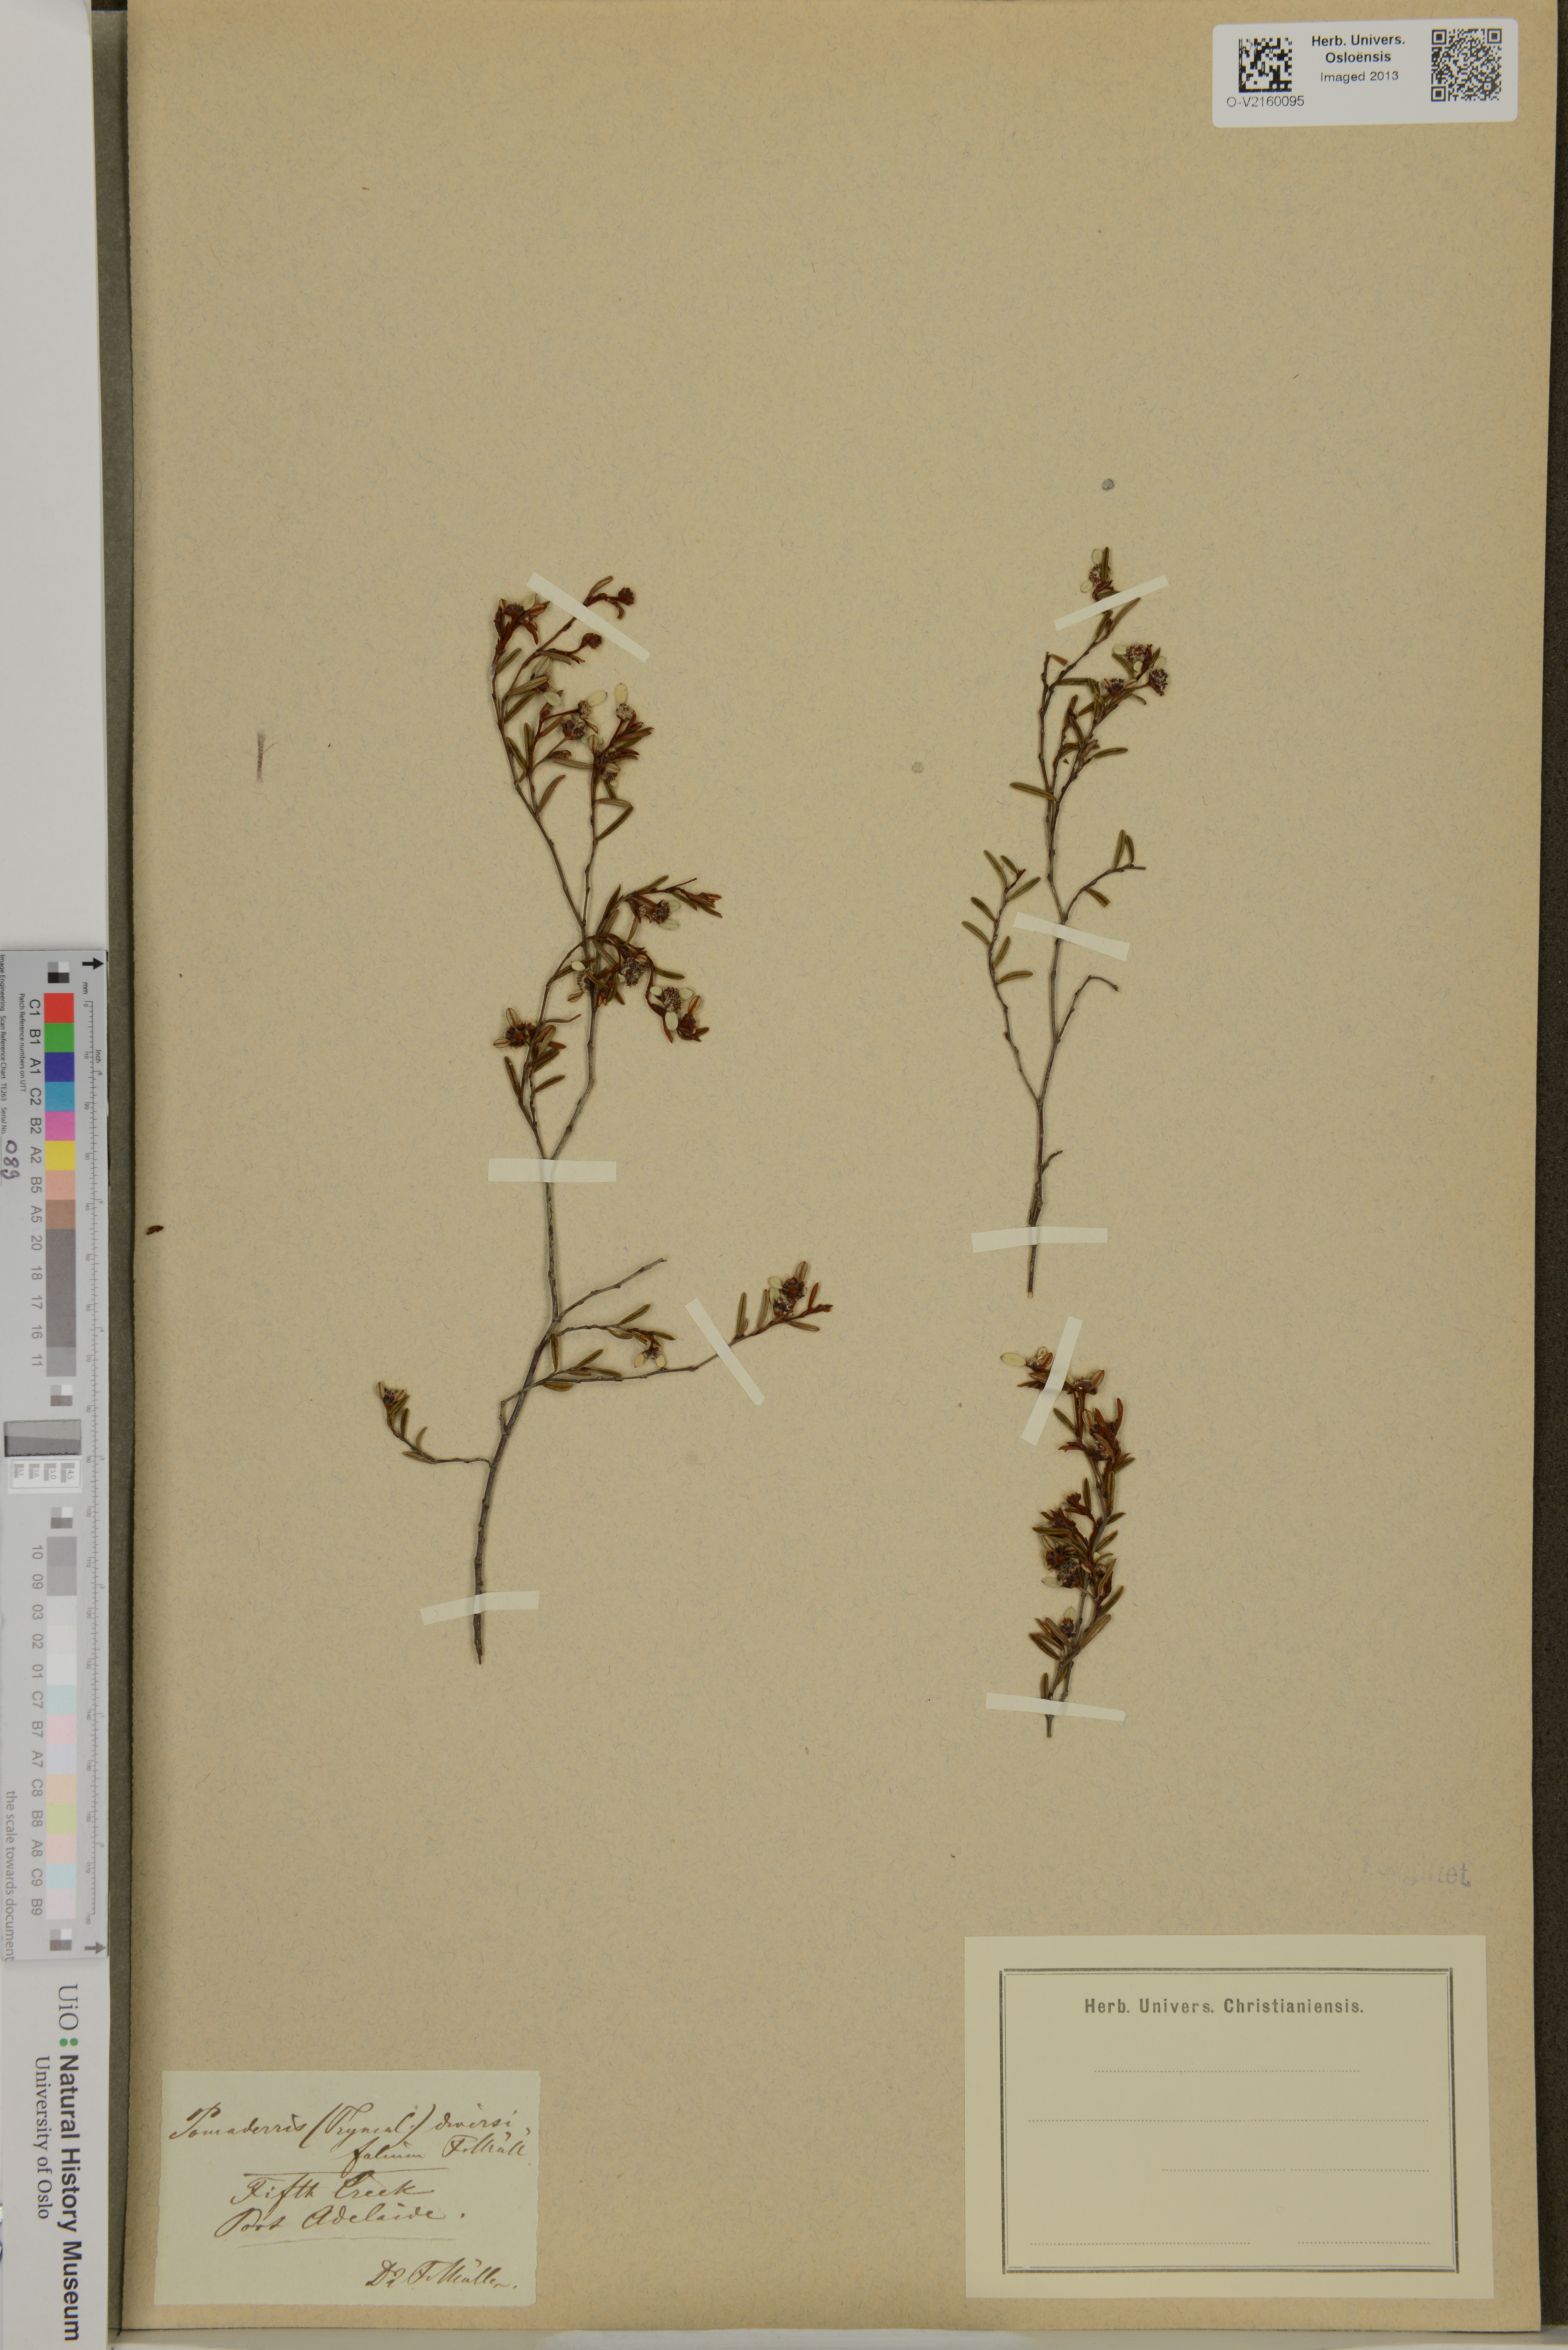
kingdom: Plantae
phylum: Tracheophyta
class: Magnoliopsida
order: Rosales
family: Rhamnaceae
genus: Pomaderris
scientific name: Pomaderris
